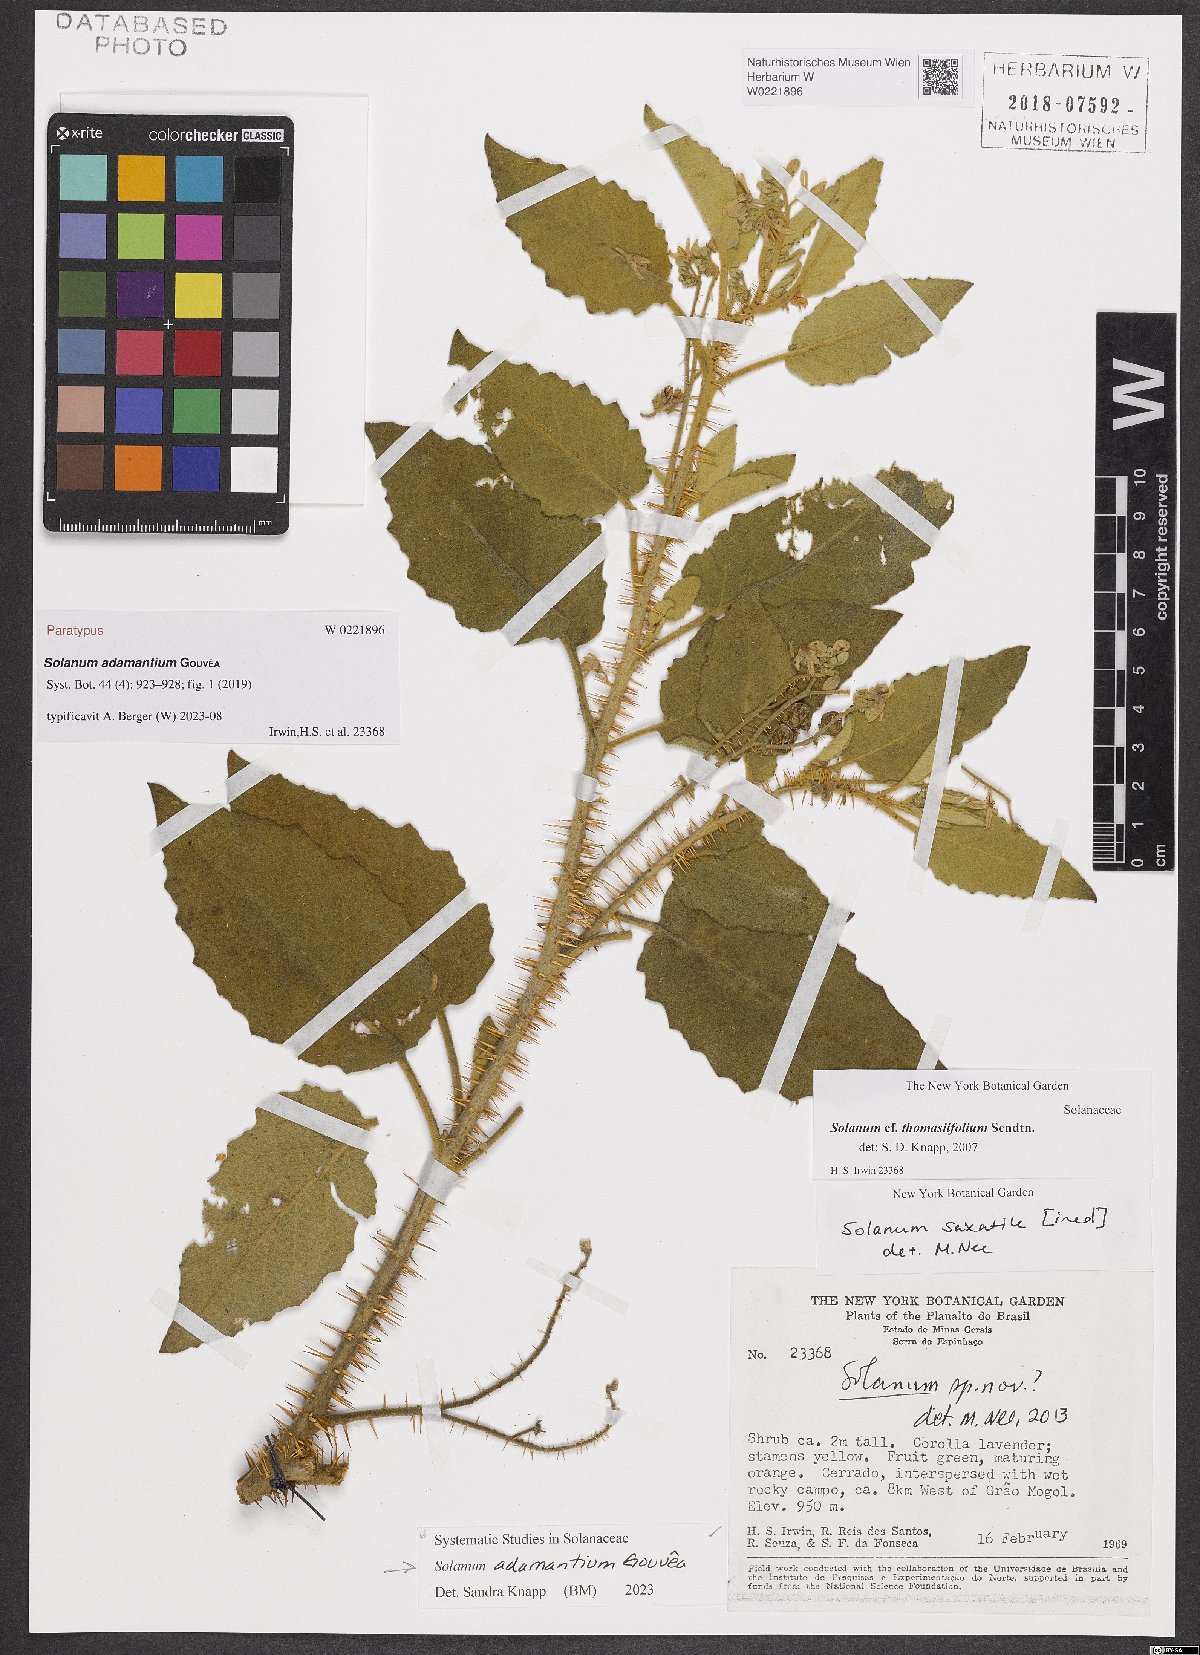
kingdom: Plantae
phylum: Tracheophyta
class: Magnoliopsida
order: Solanales
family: Solanaceae
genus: Solanum
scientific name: Solanum adamantium
